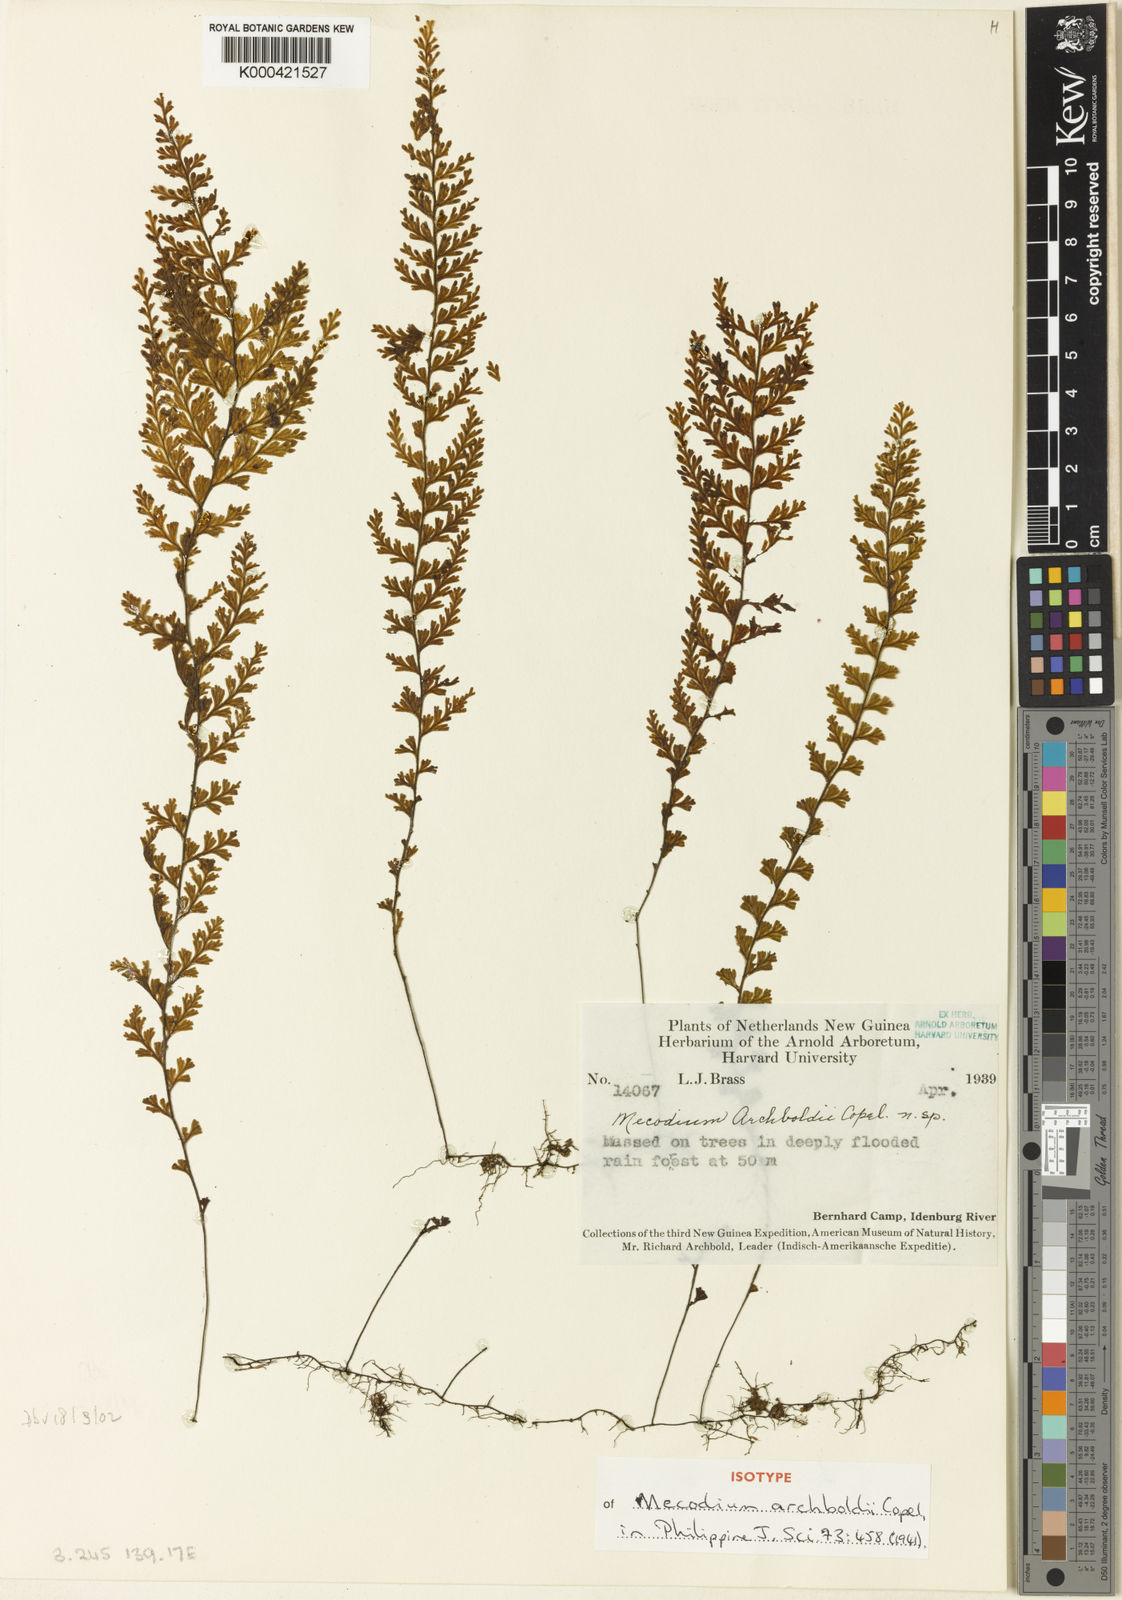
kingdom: Plantae
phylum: Tracheophyta
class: Polypodiopsida
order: Hymenophyllales
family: Hymenophyllaceae
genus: Hymenophyllum
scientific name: Hymenophyllum archboldii
